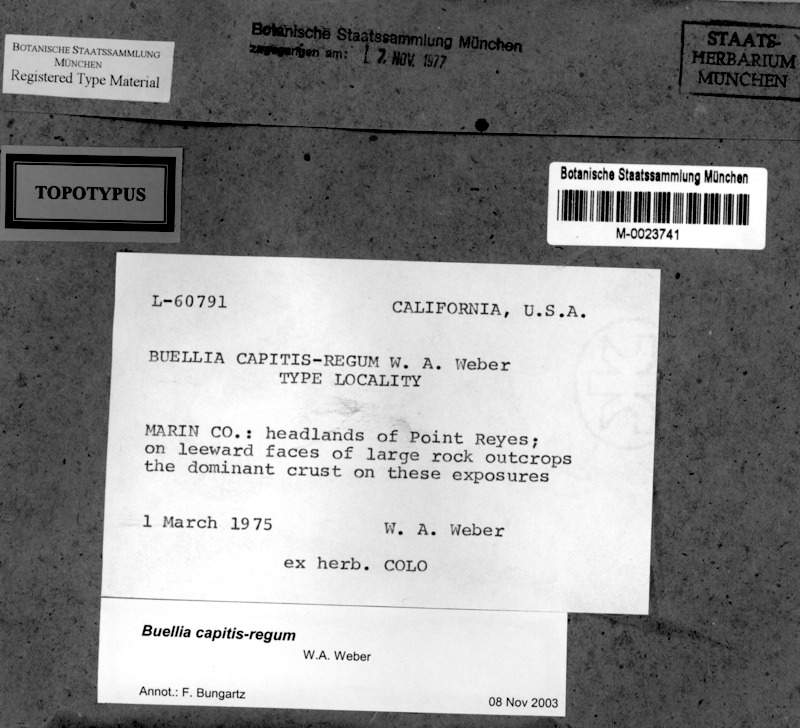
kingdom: Fungi
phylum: Ascomycota
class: Lecanoromycetes
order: Caliciales
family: Caliciaceae
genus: Buellia
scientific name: Buellia capitis-regum
